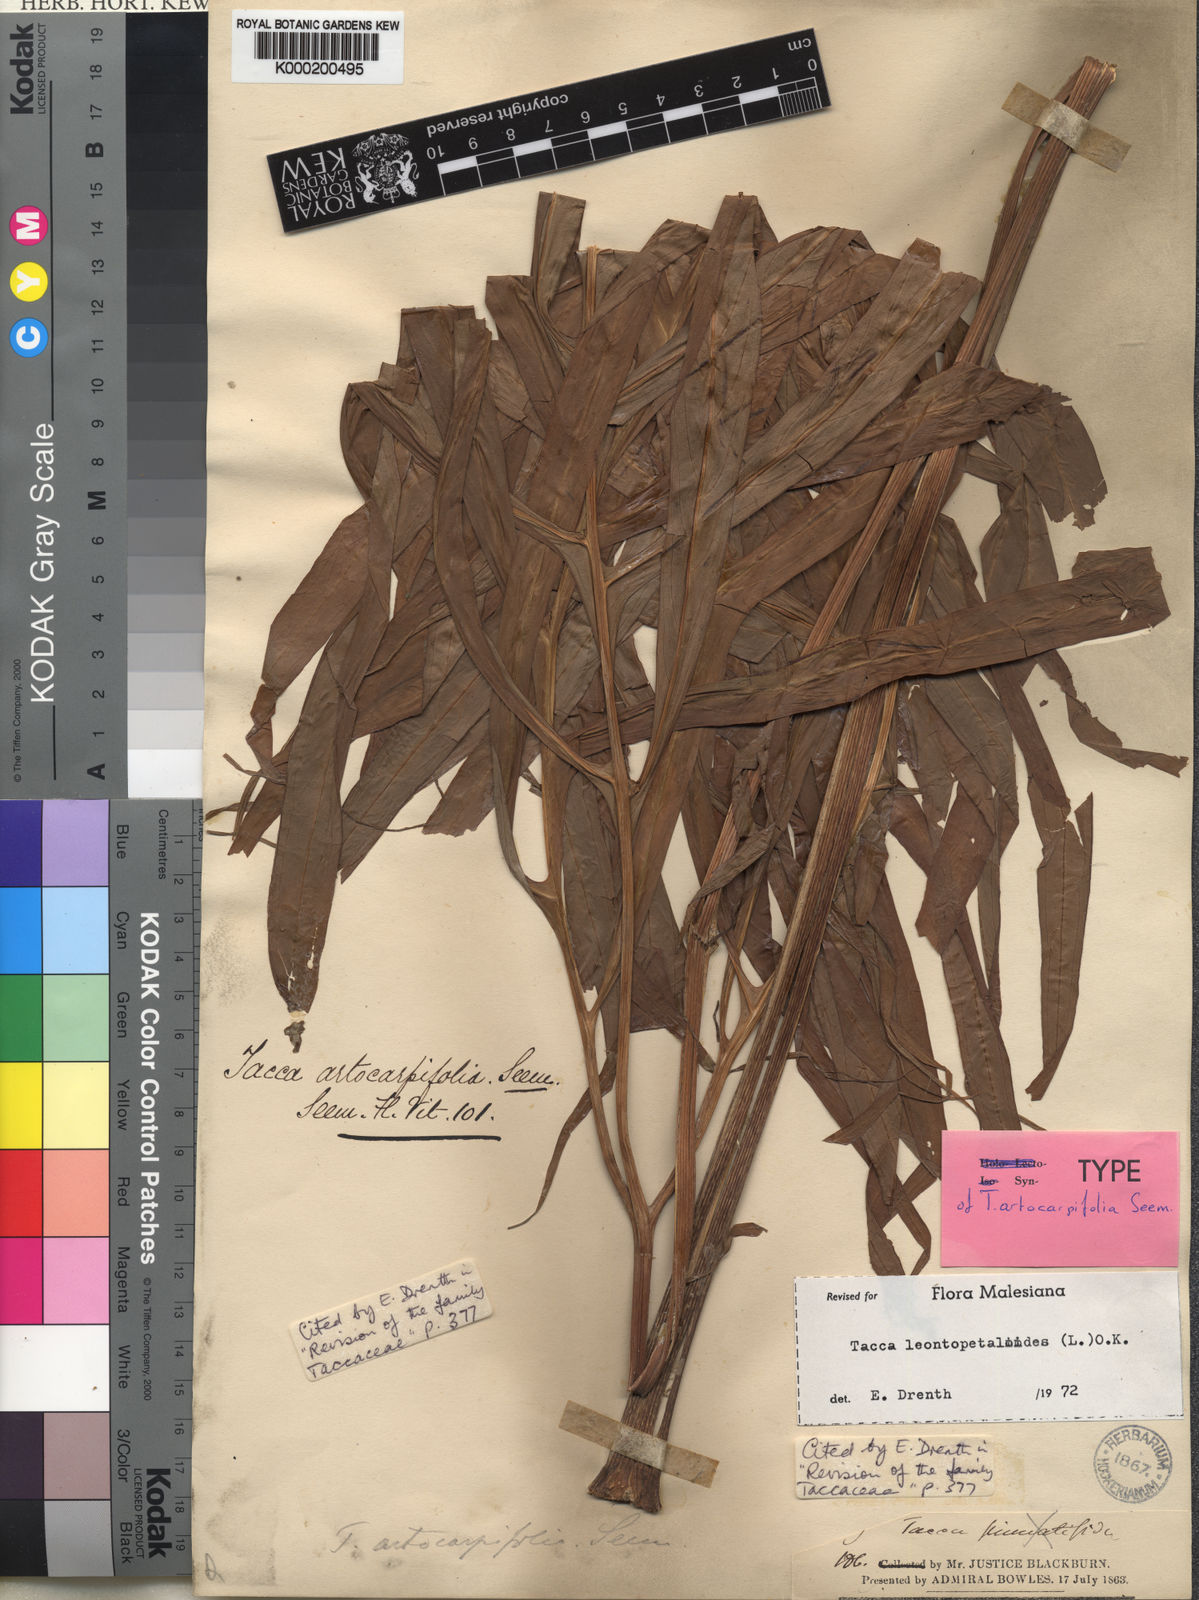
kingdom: Plantae
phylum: Tracheophyta
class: Liliopsida
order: Dioscoreales
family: Dioscoreaceae
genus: Tacca
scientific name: Tacca leontopetaloides
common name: Arrowroot
